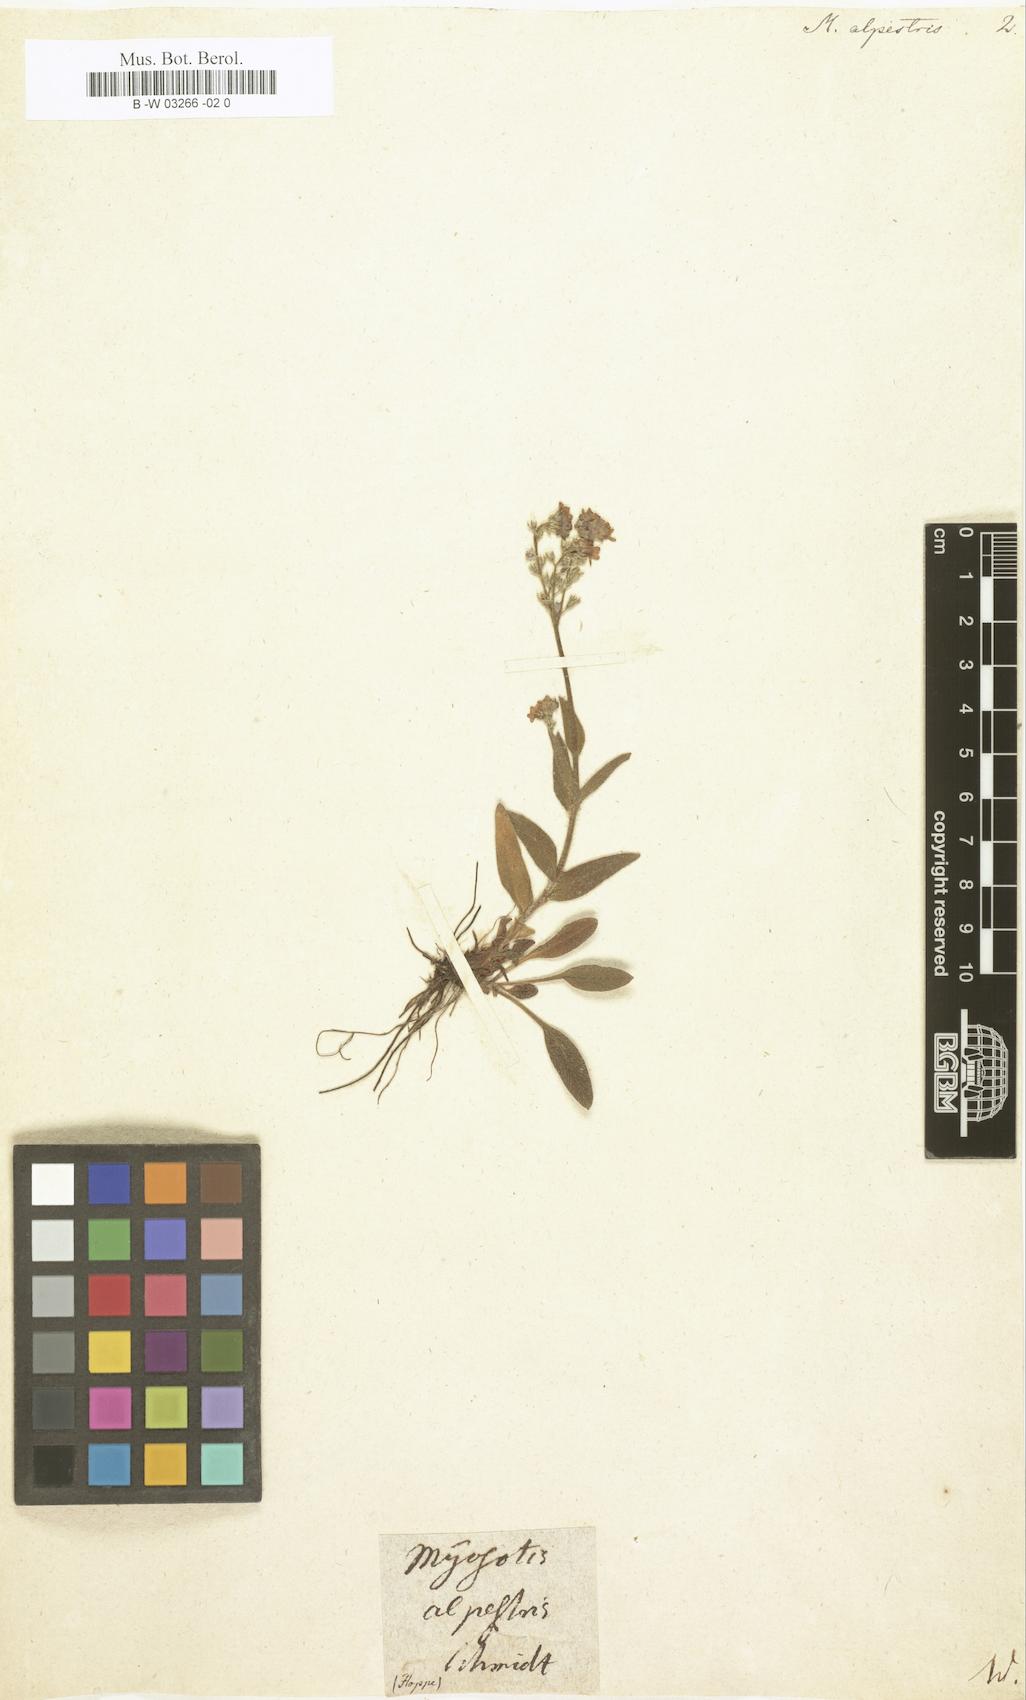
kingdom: Plantae
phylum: Tracheophyta
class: Magnoliopsida
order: Boraginales
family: Boraginaceae
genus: Myosotis
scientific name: Myosotis alpestris
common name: Alpine forget-me-not
